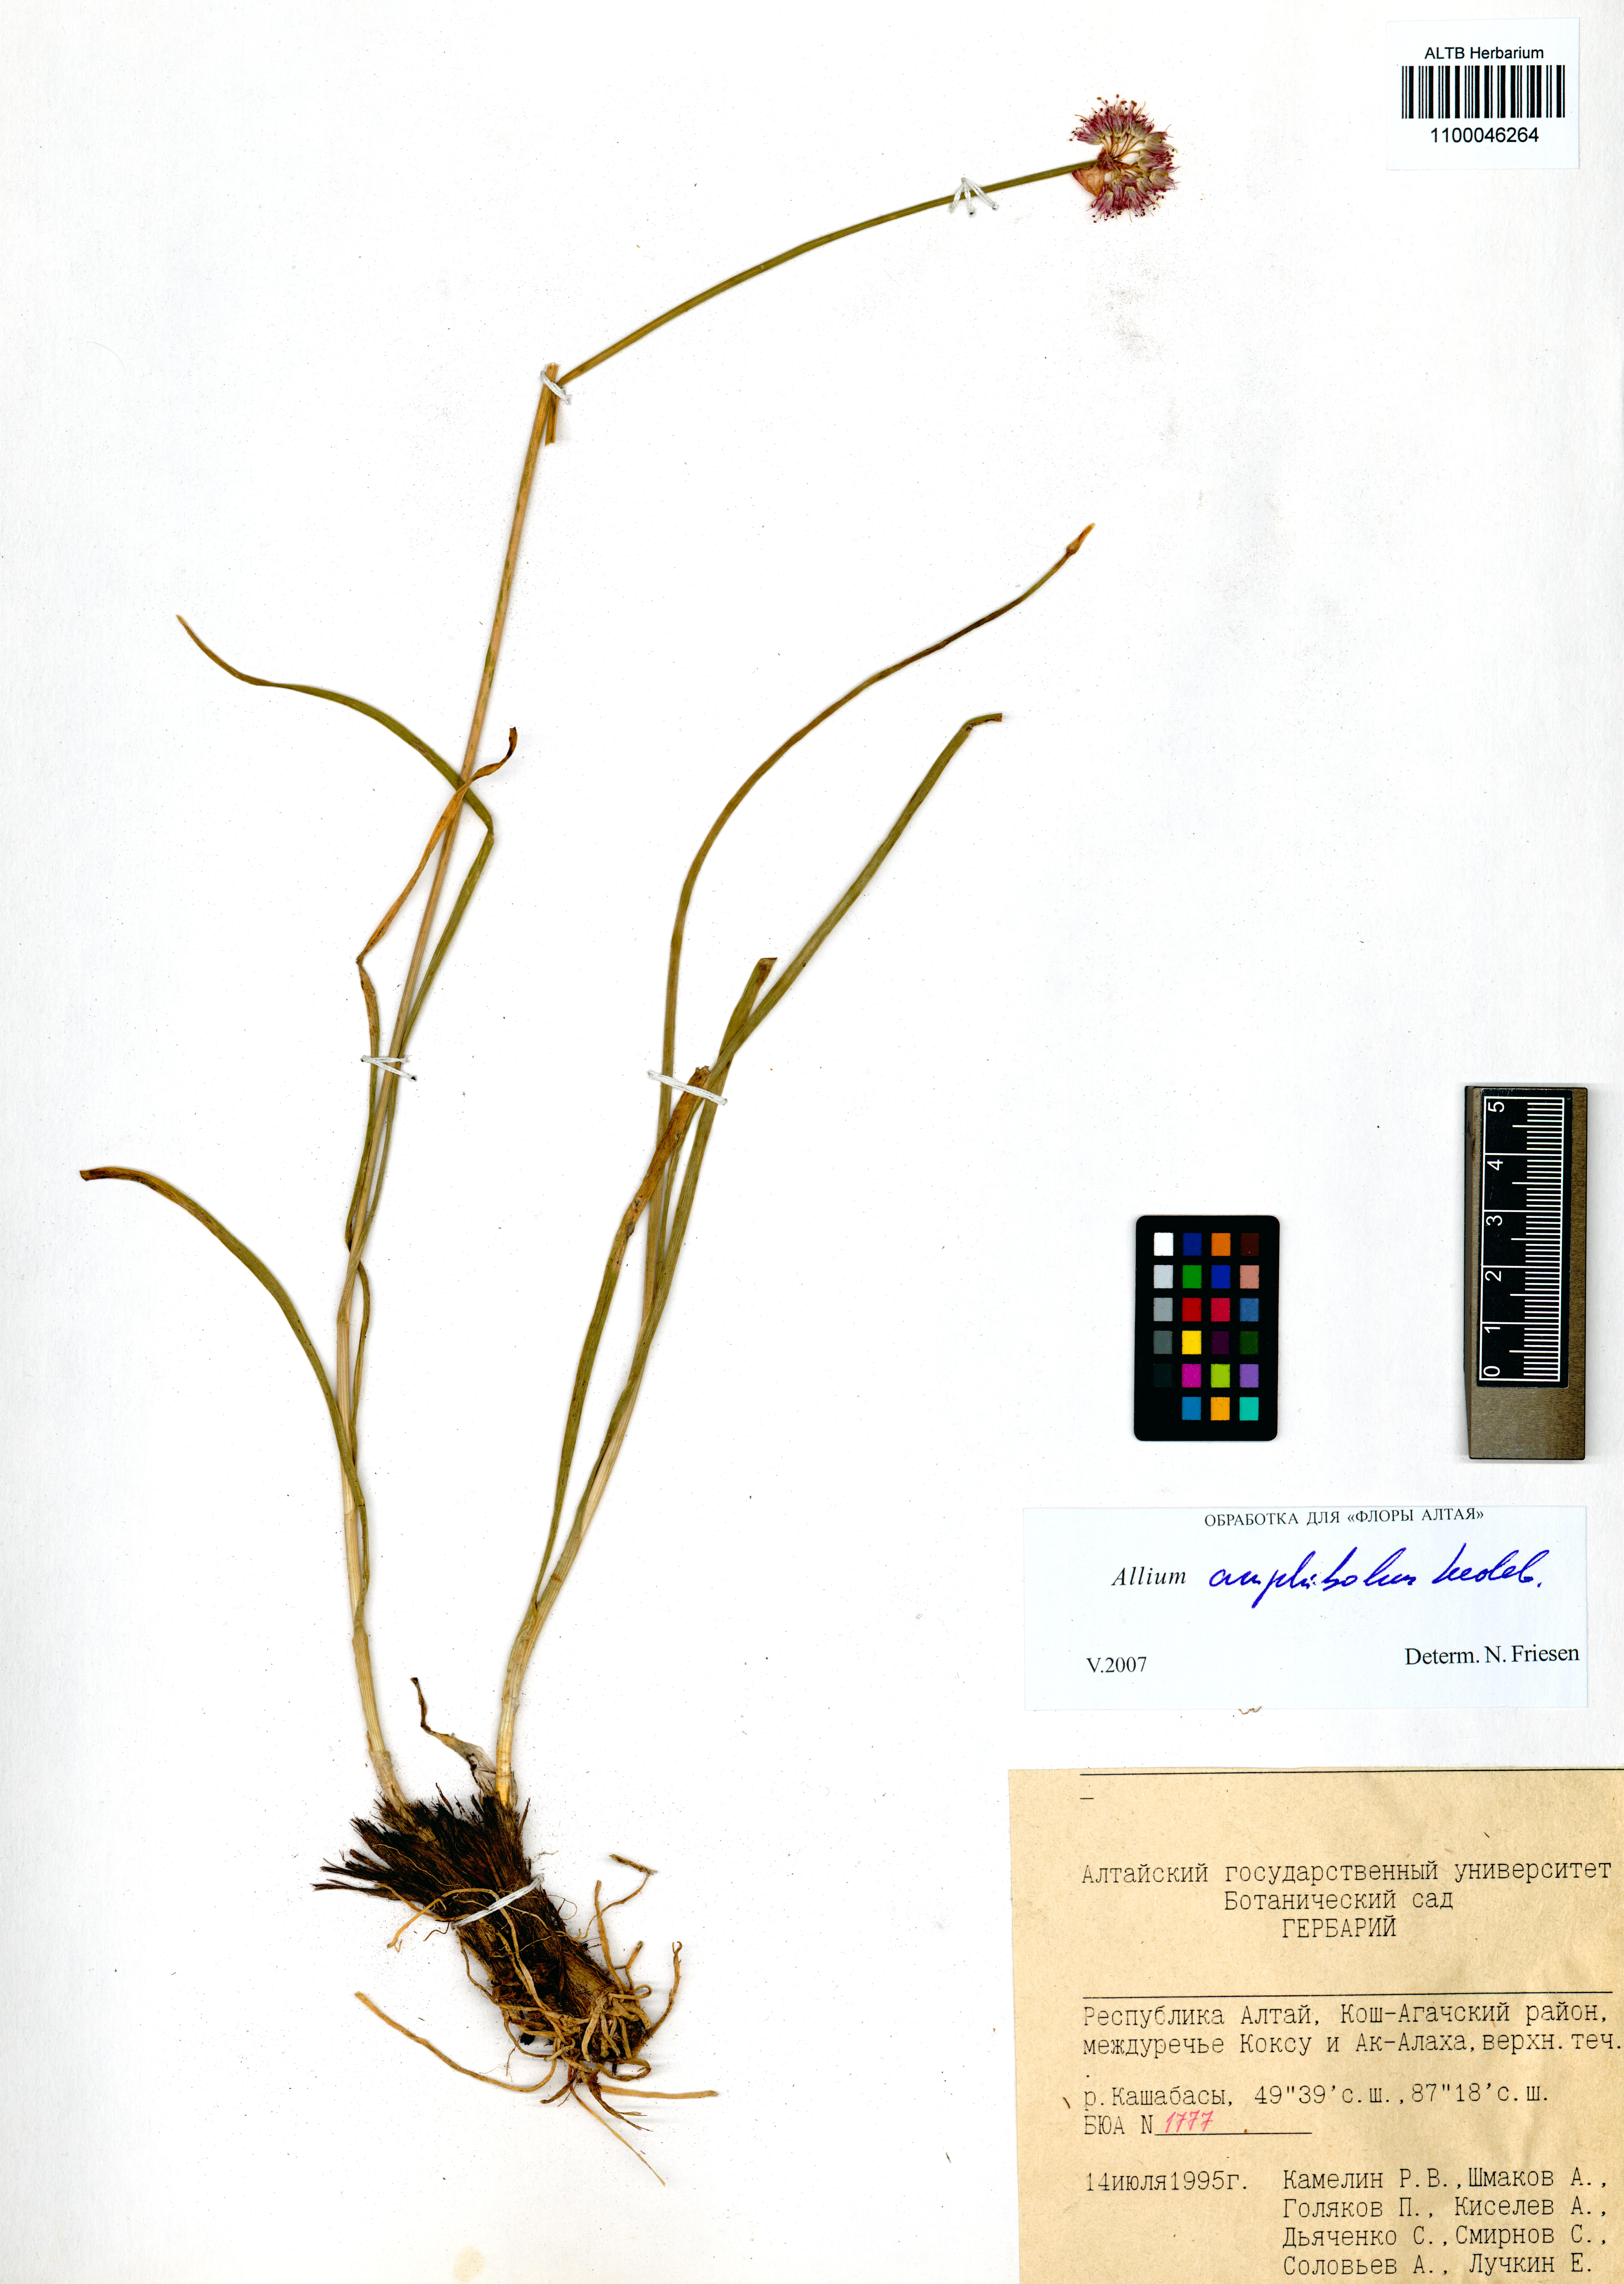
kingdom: Plantae
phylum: Tracheophyta
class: Liliopsida
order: Asparagales
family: Amaryllidaceae
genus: Allium
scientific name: Allium amphibolum
